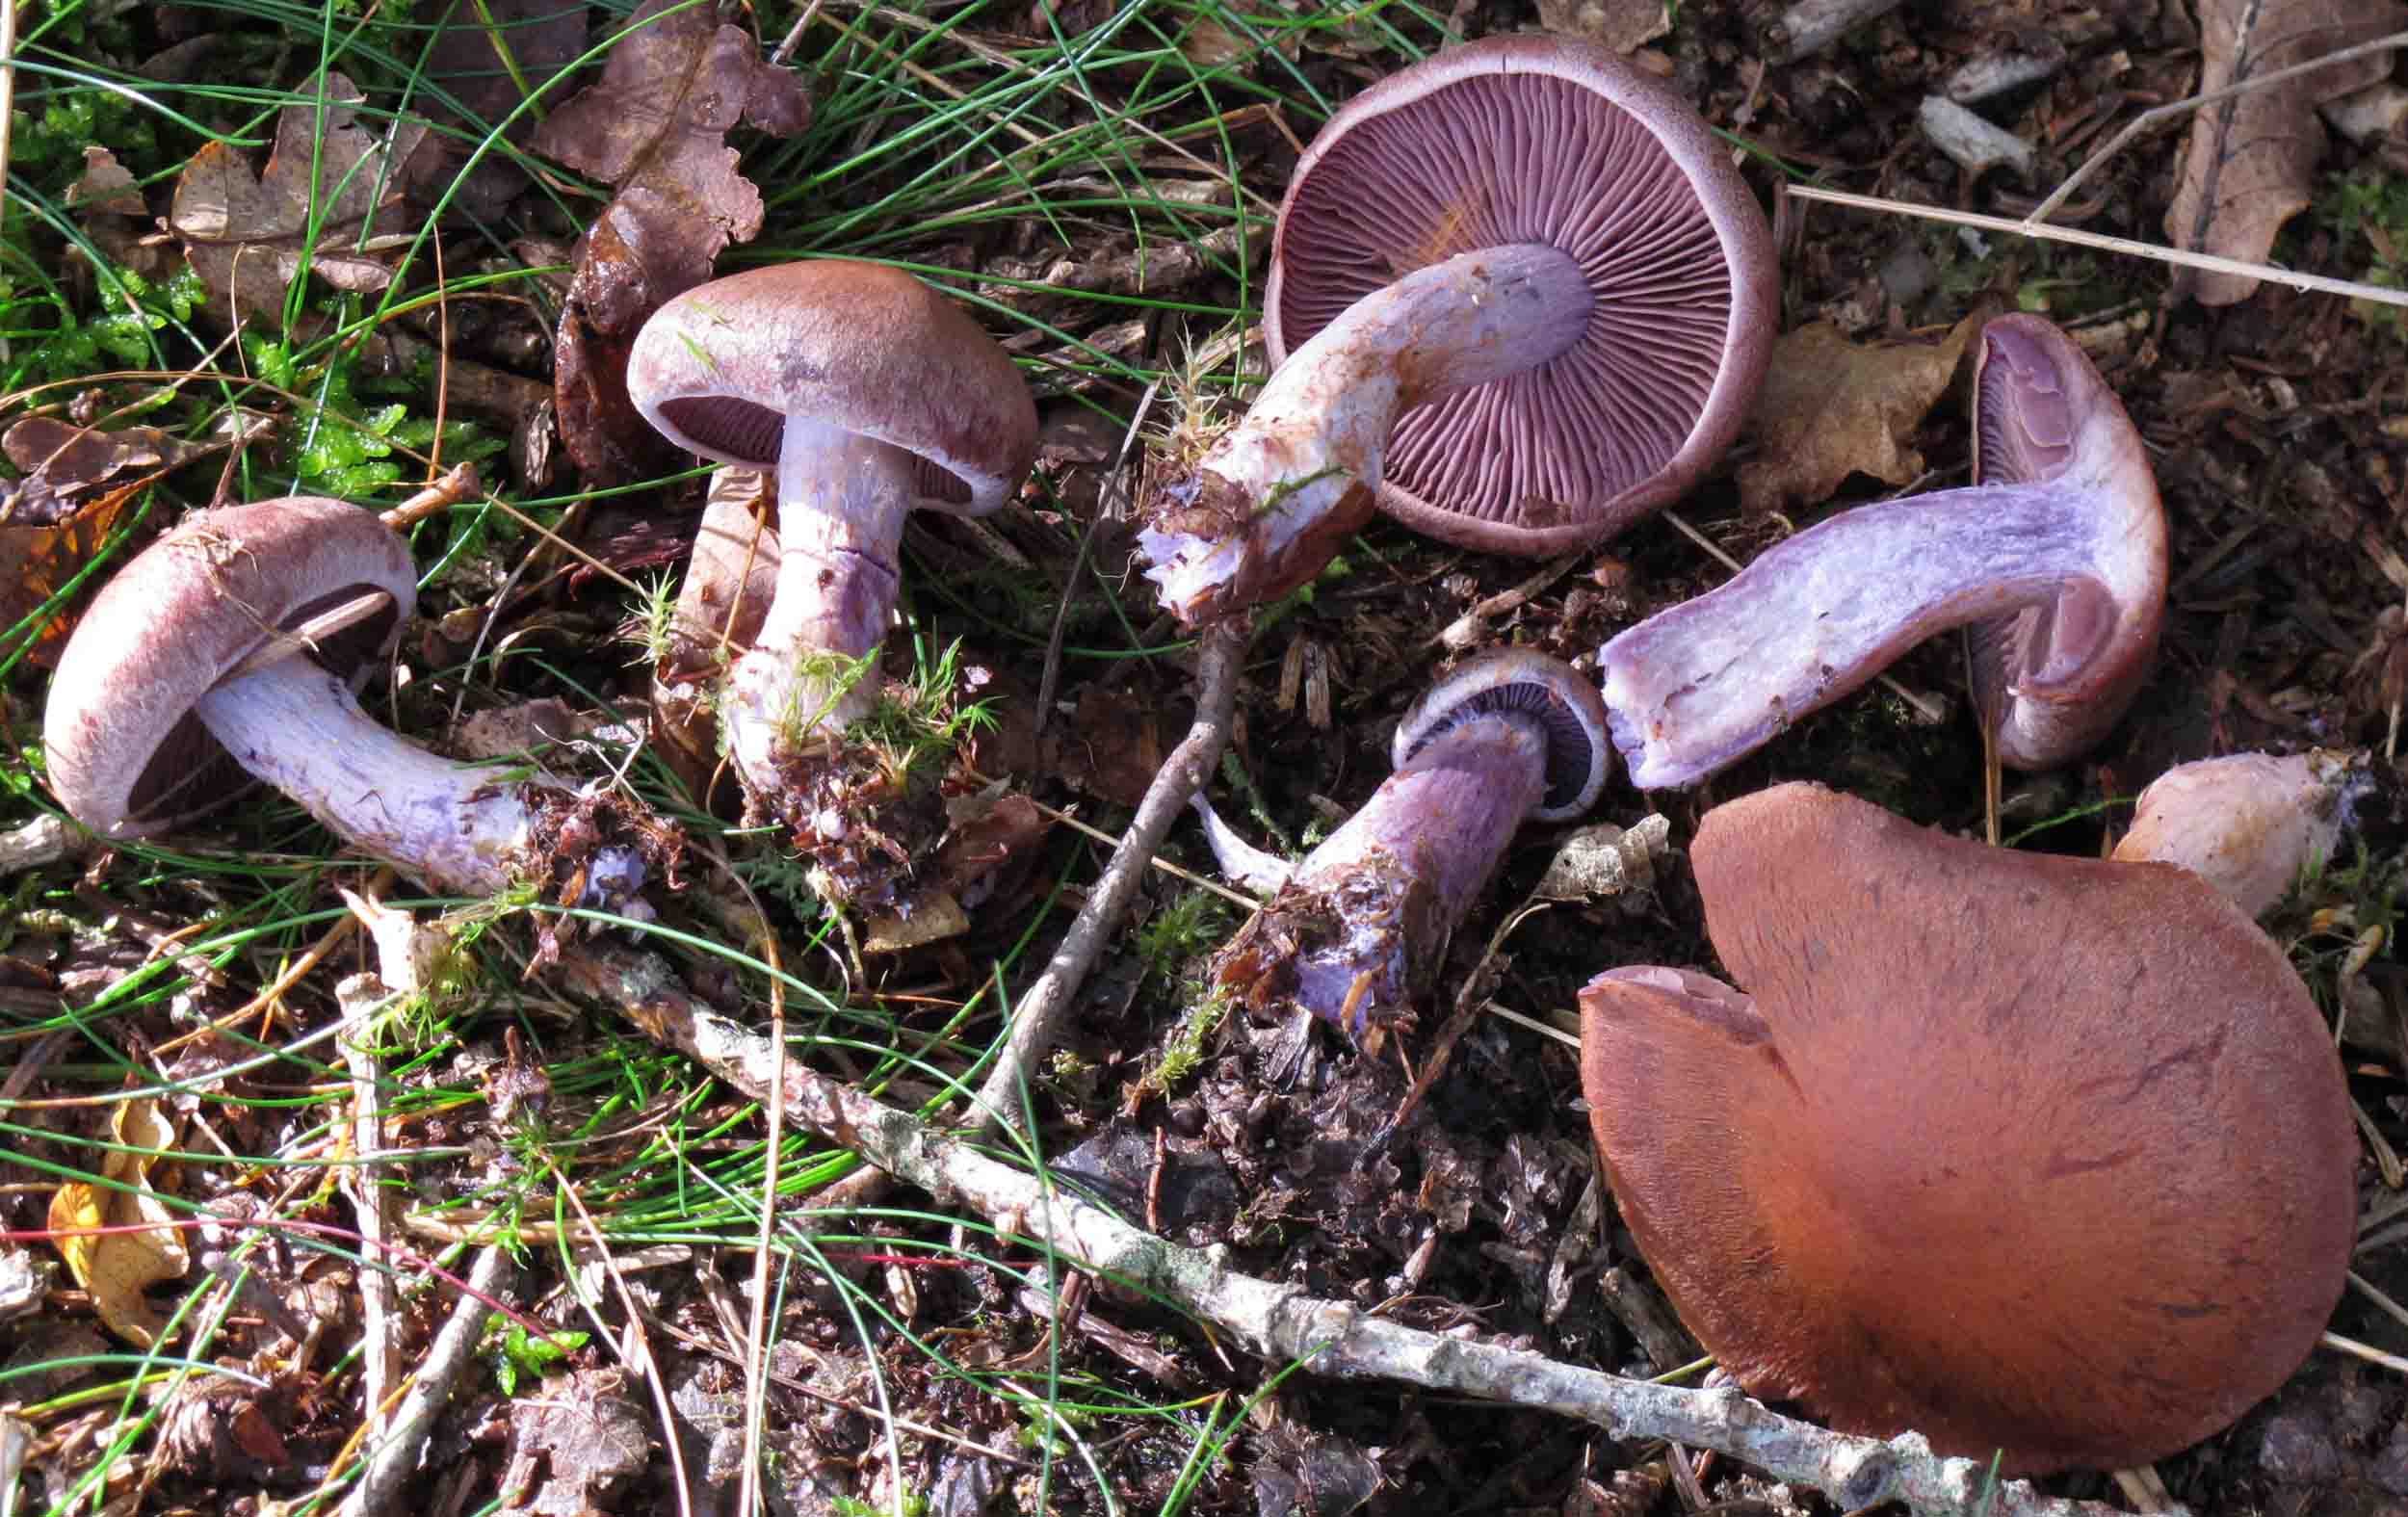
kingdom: Fungi
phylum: Basidiomycota
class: Agaricomycetes
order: Agaricales
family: Cortinariaceae
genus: Cortinarius
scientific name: Cortinarius simulatus
